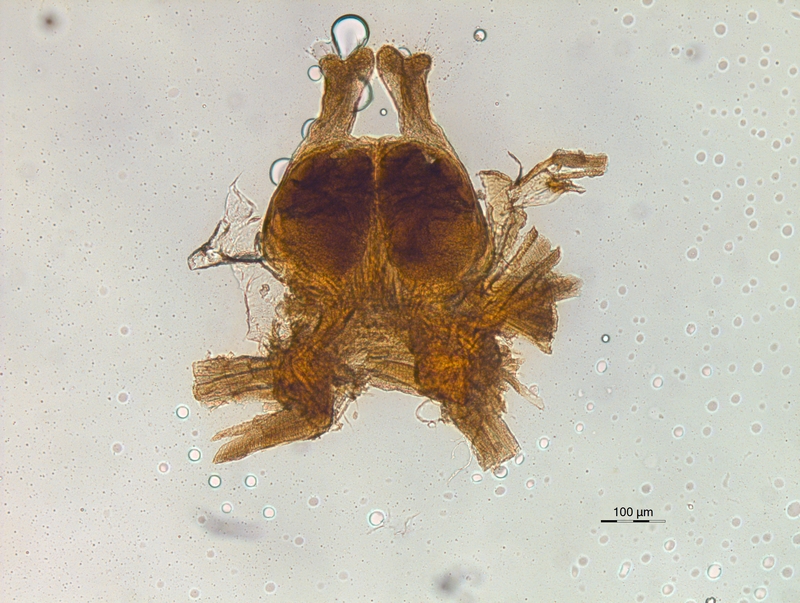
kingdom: Animalia
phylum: Arthropoda
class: Diplopoda
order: Chordeumatida
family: Chordeumatidae
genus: Melogona
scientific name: Melogona voigtii
